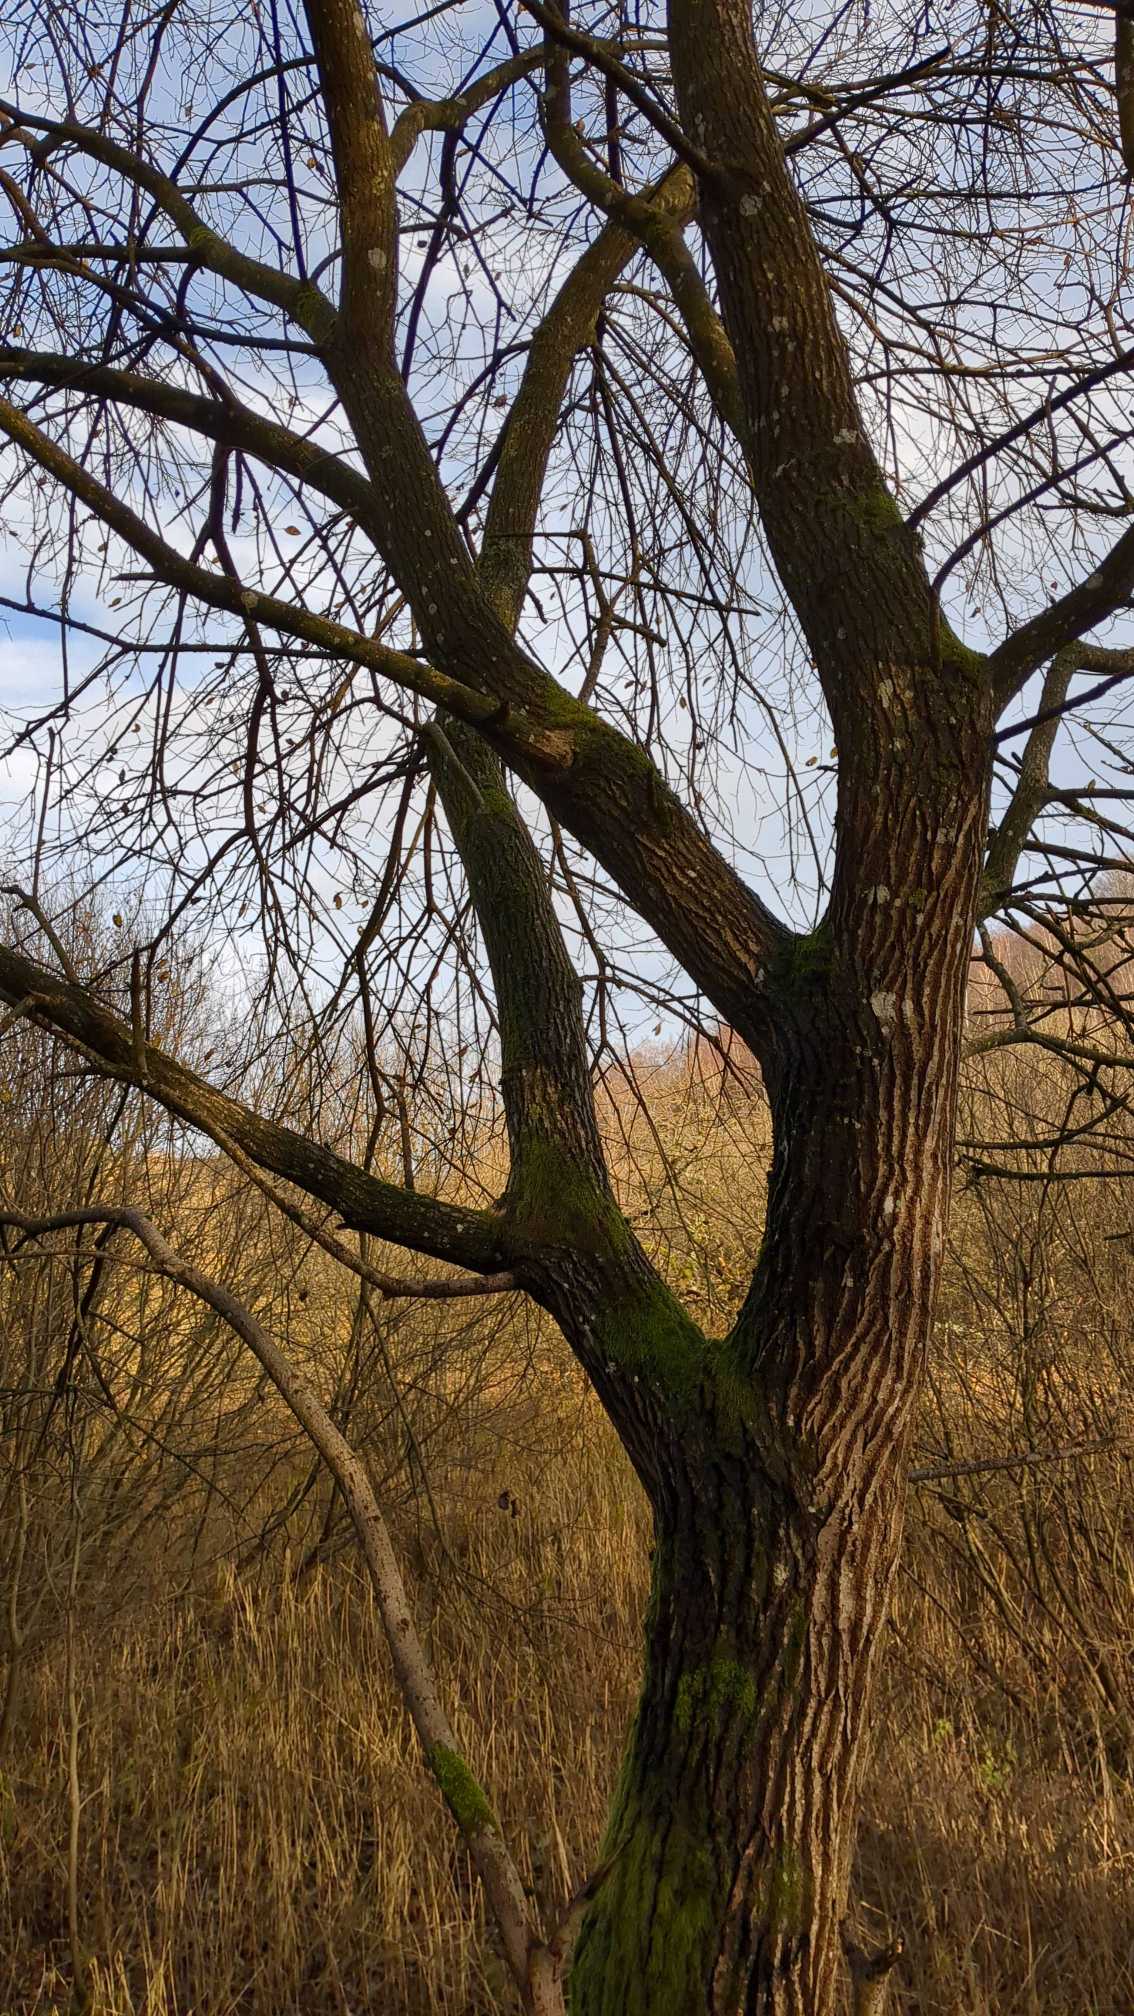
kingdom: Plantae
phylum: Tracheophyta
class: Magnoliopsida
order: Malpighiales
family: Salicaceae
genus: Salix
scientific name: Salix
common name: Pileslægten
